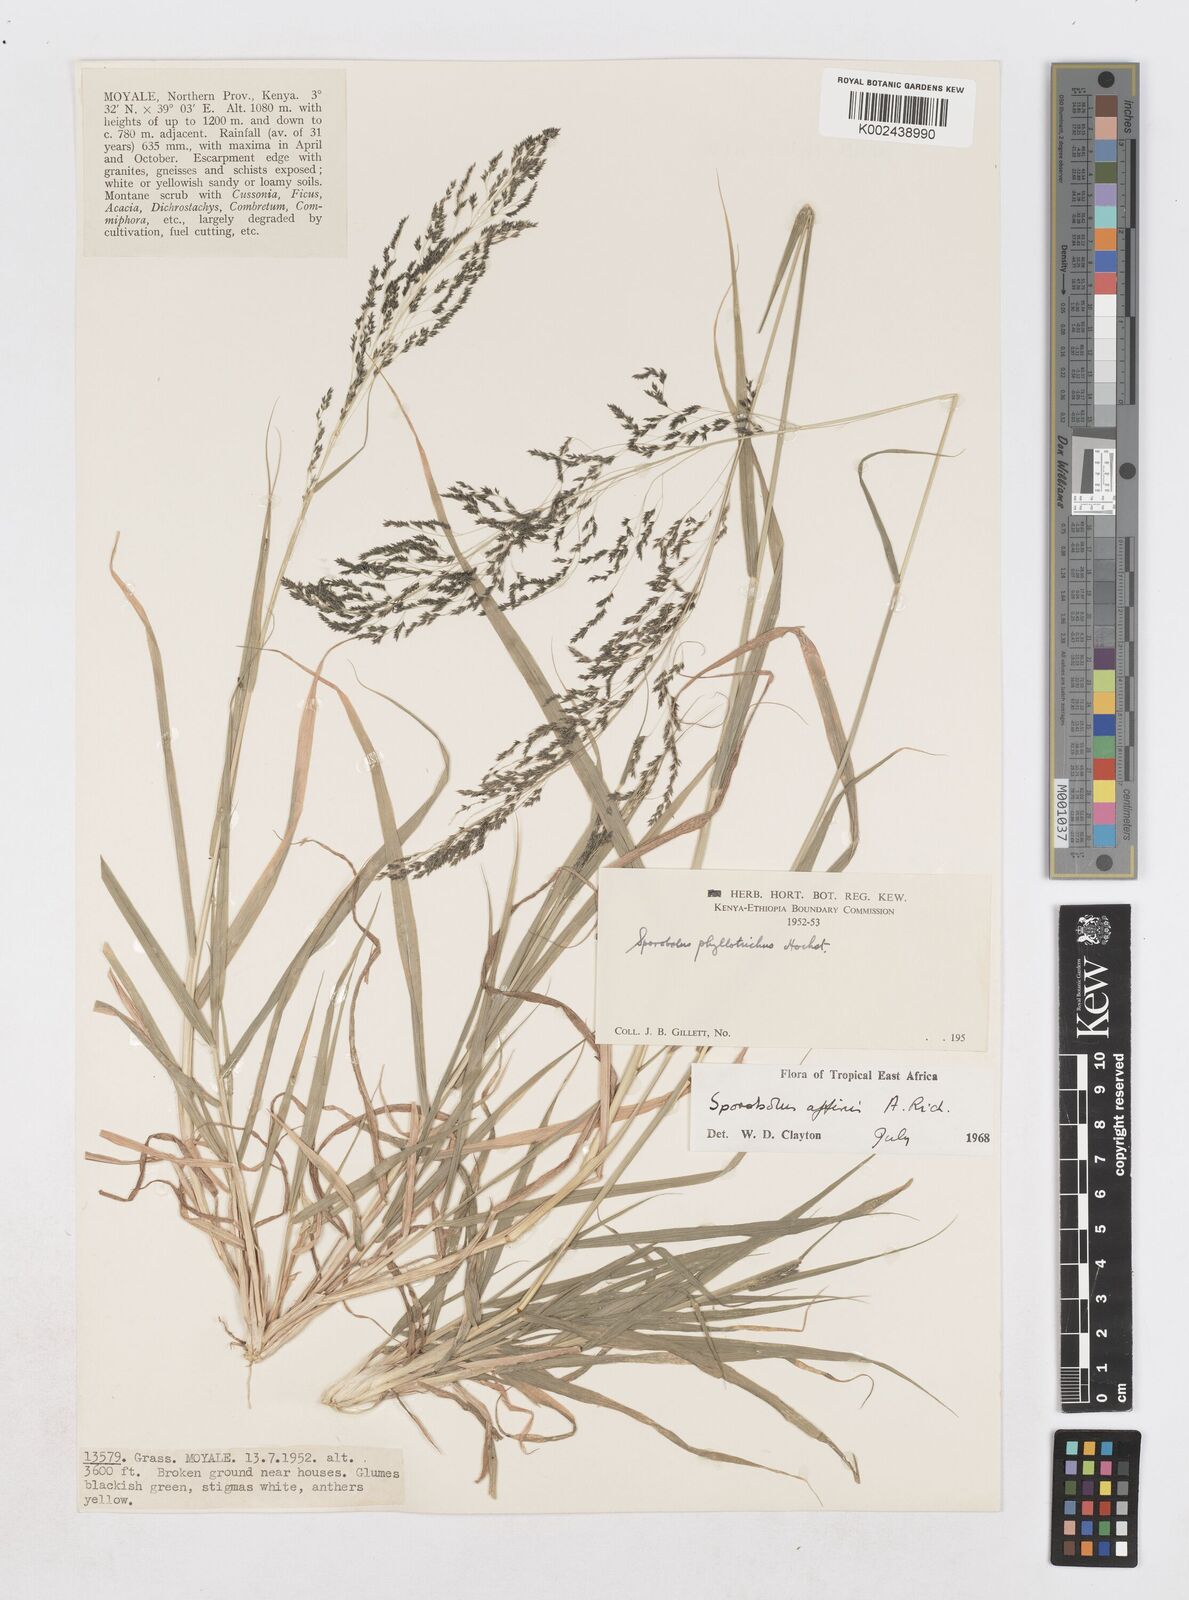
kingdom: Plantae
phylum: Tracheophyta
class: Liliopsida
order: Poales
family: Poaceae
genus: Sporobolus
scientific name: Sporobolus confinis
